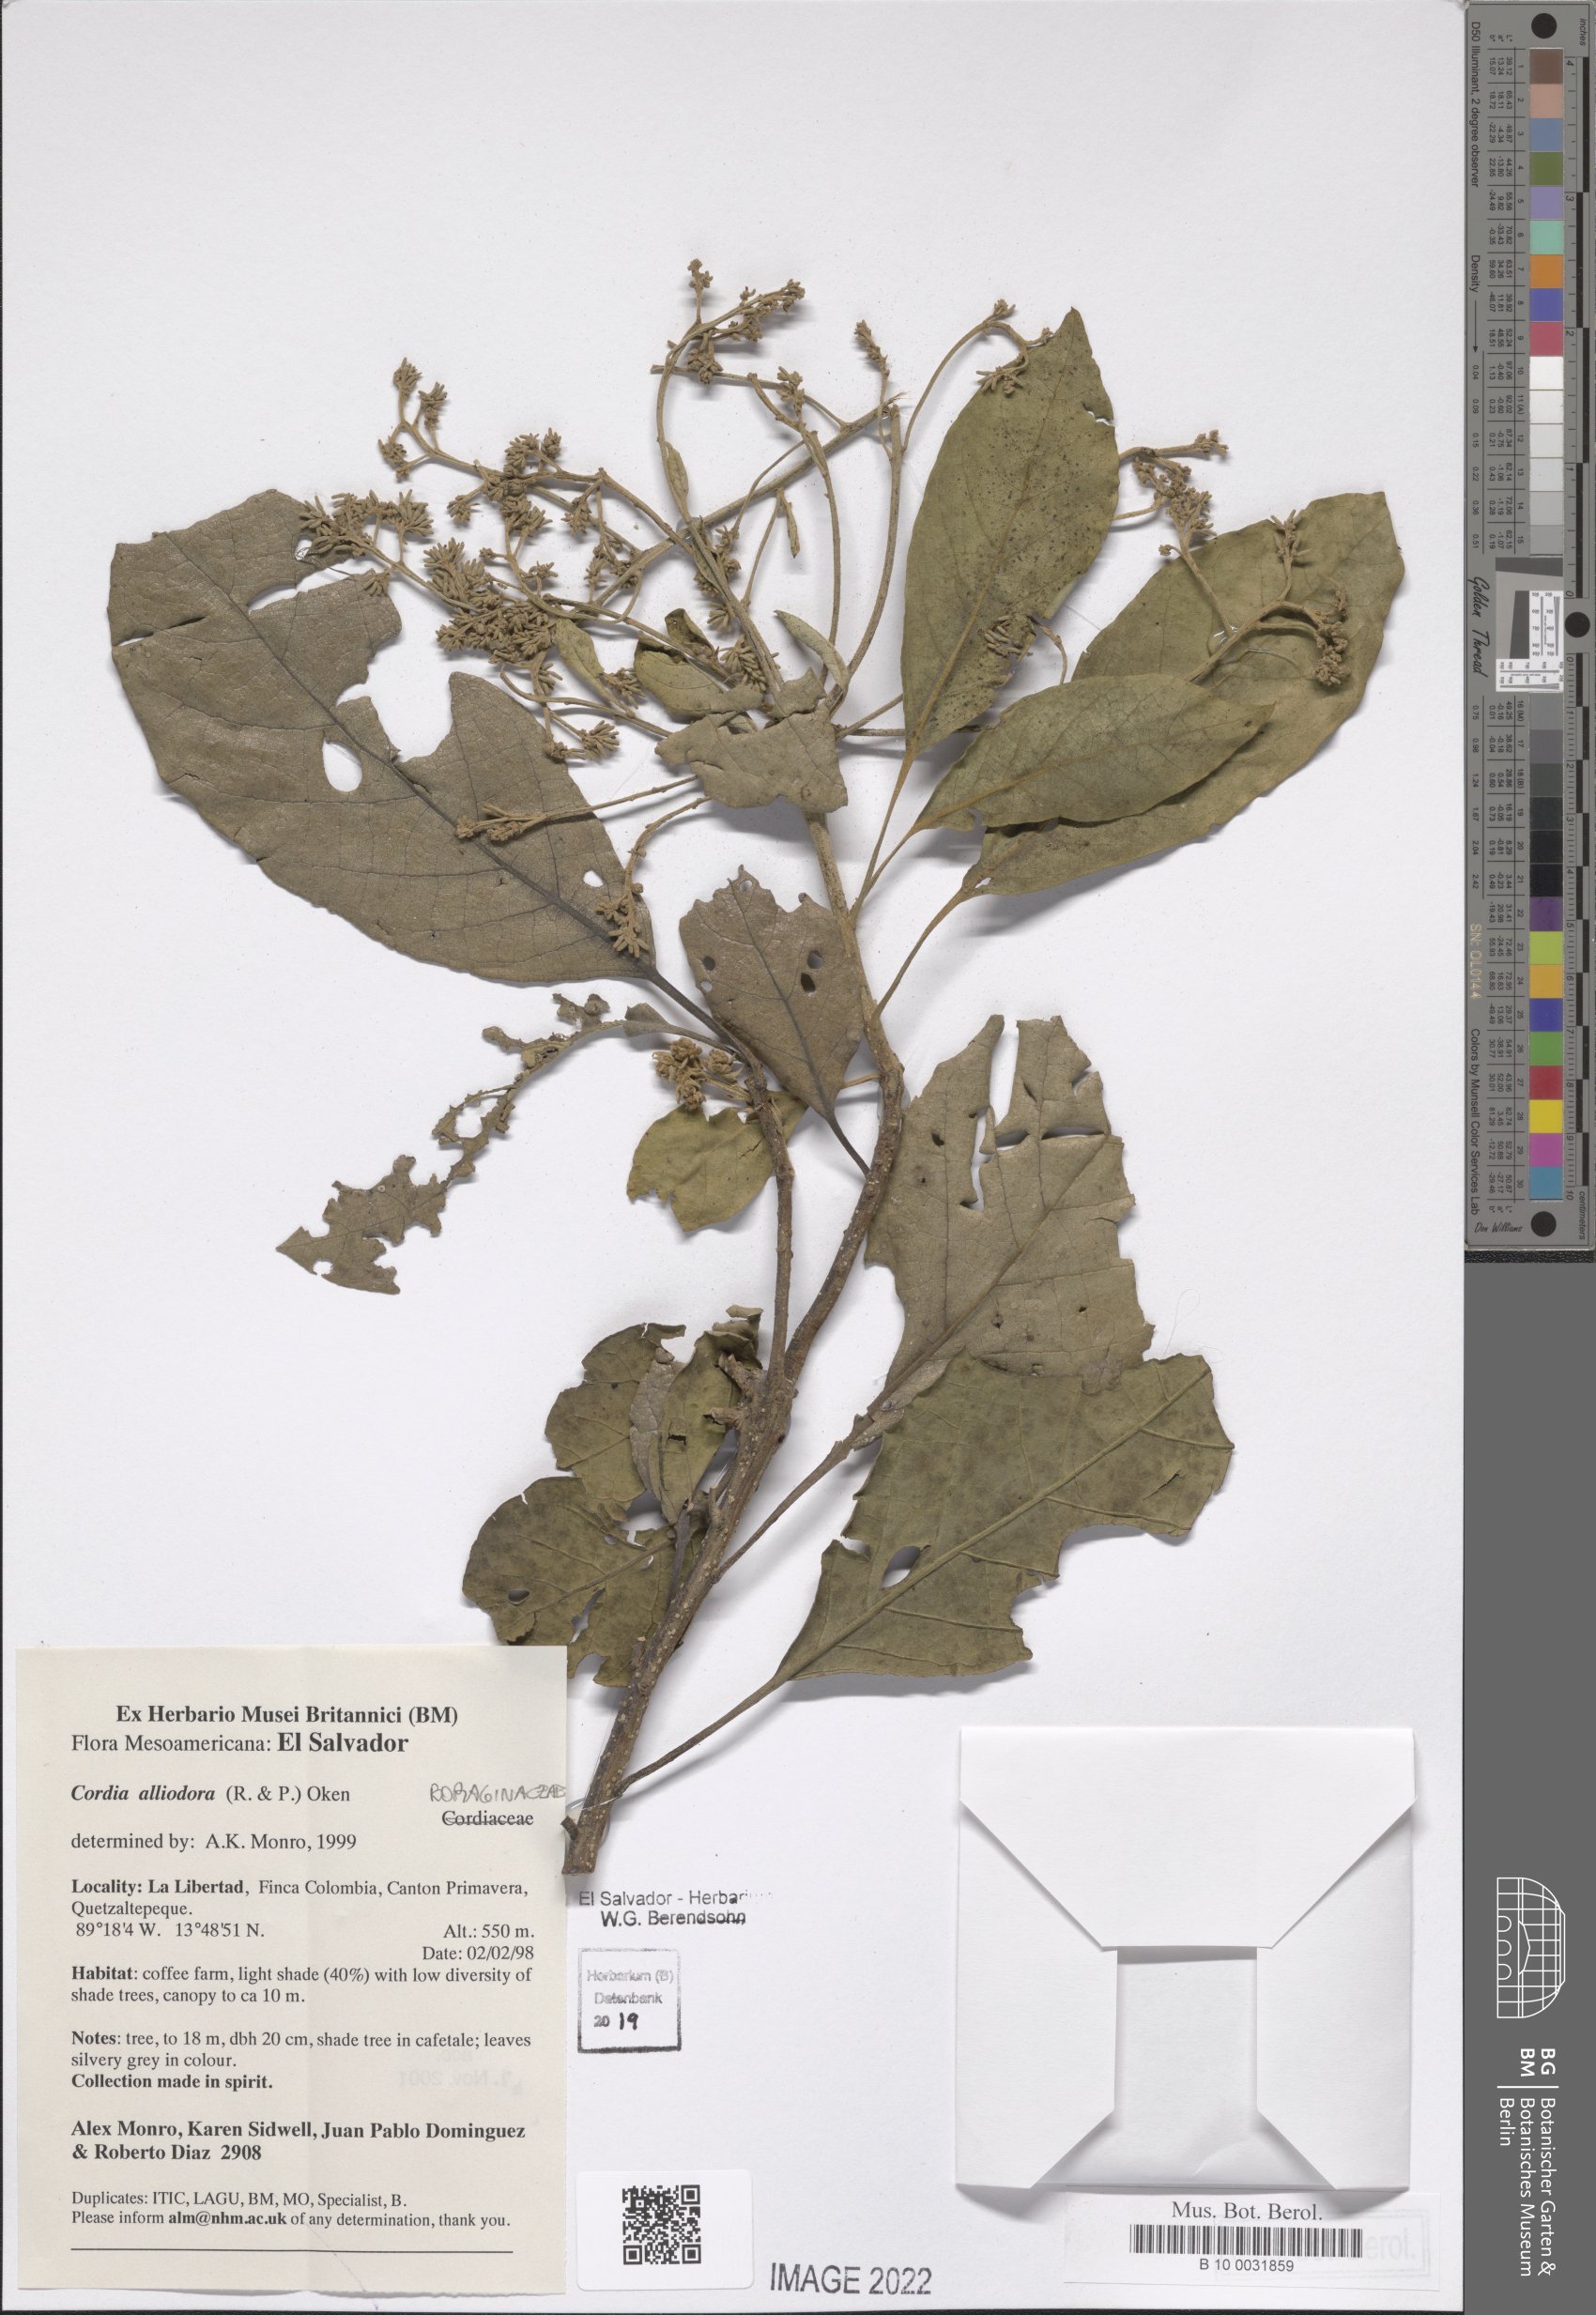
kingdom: Plantae
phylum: Tracheophyta
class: Magnoliopsida
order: Boraginales
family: Cordiaceae
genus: Cordia
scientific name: Cordia alliodora
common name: Spanish elm
